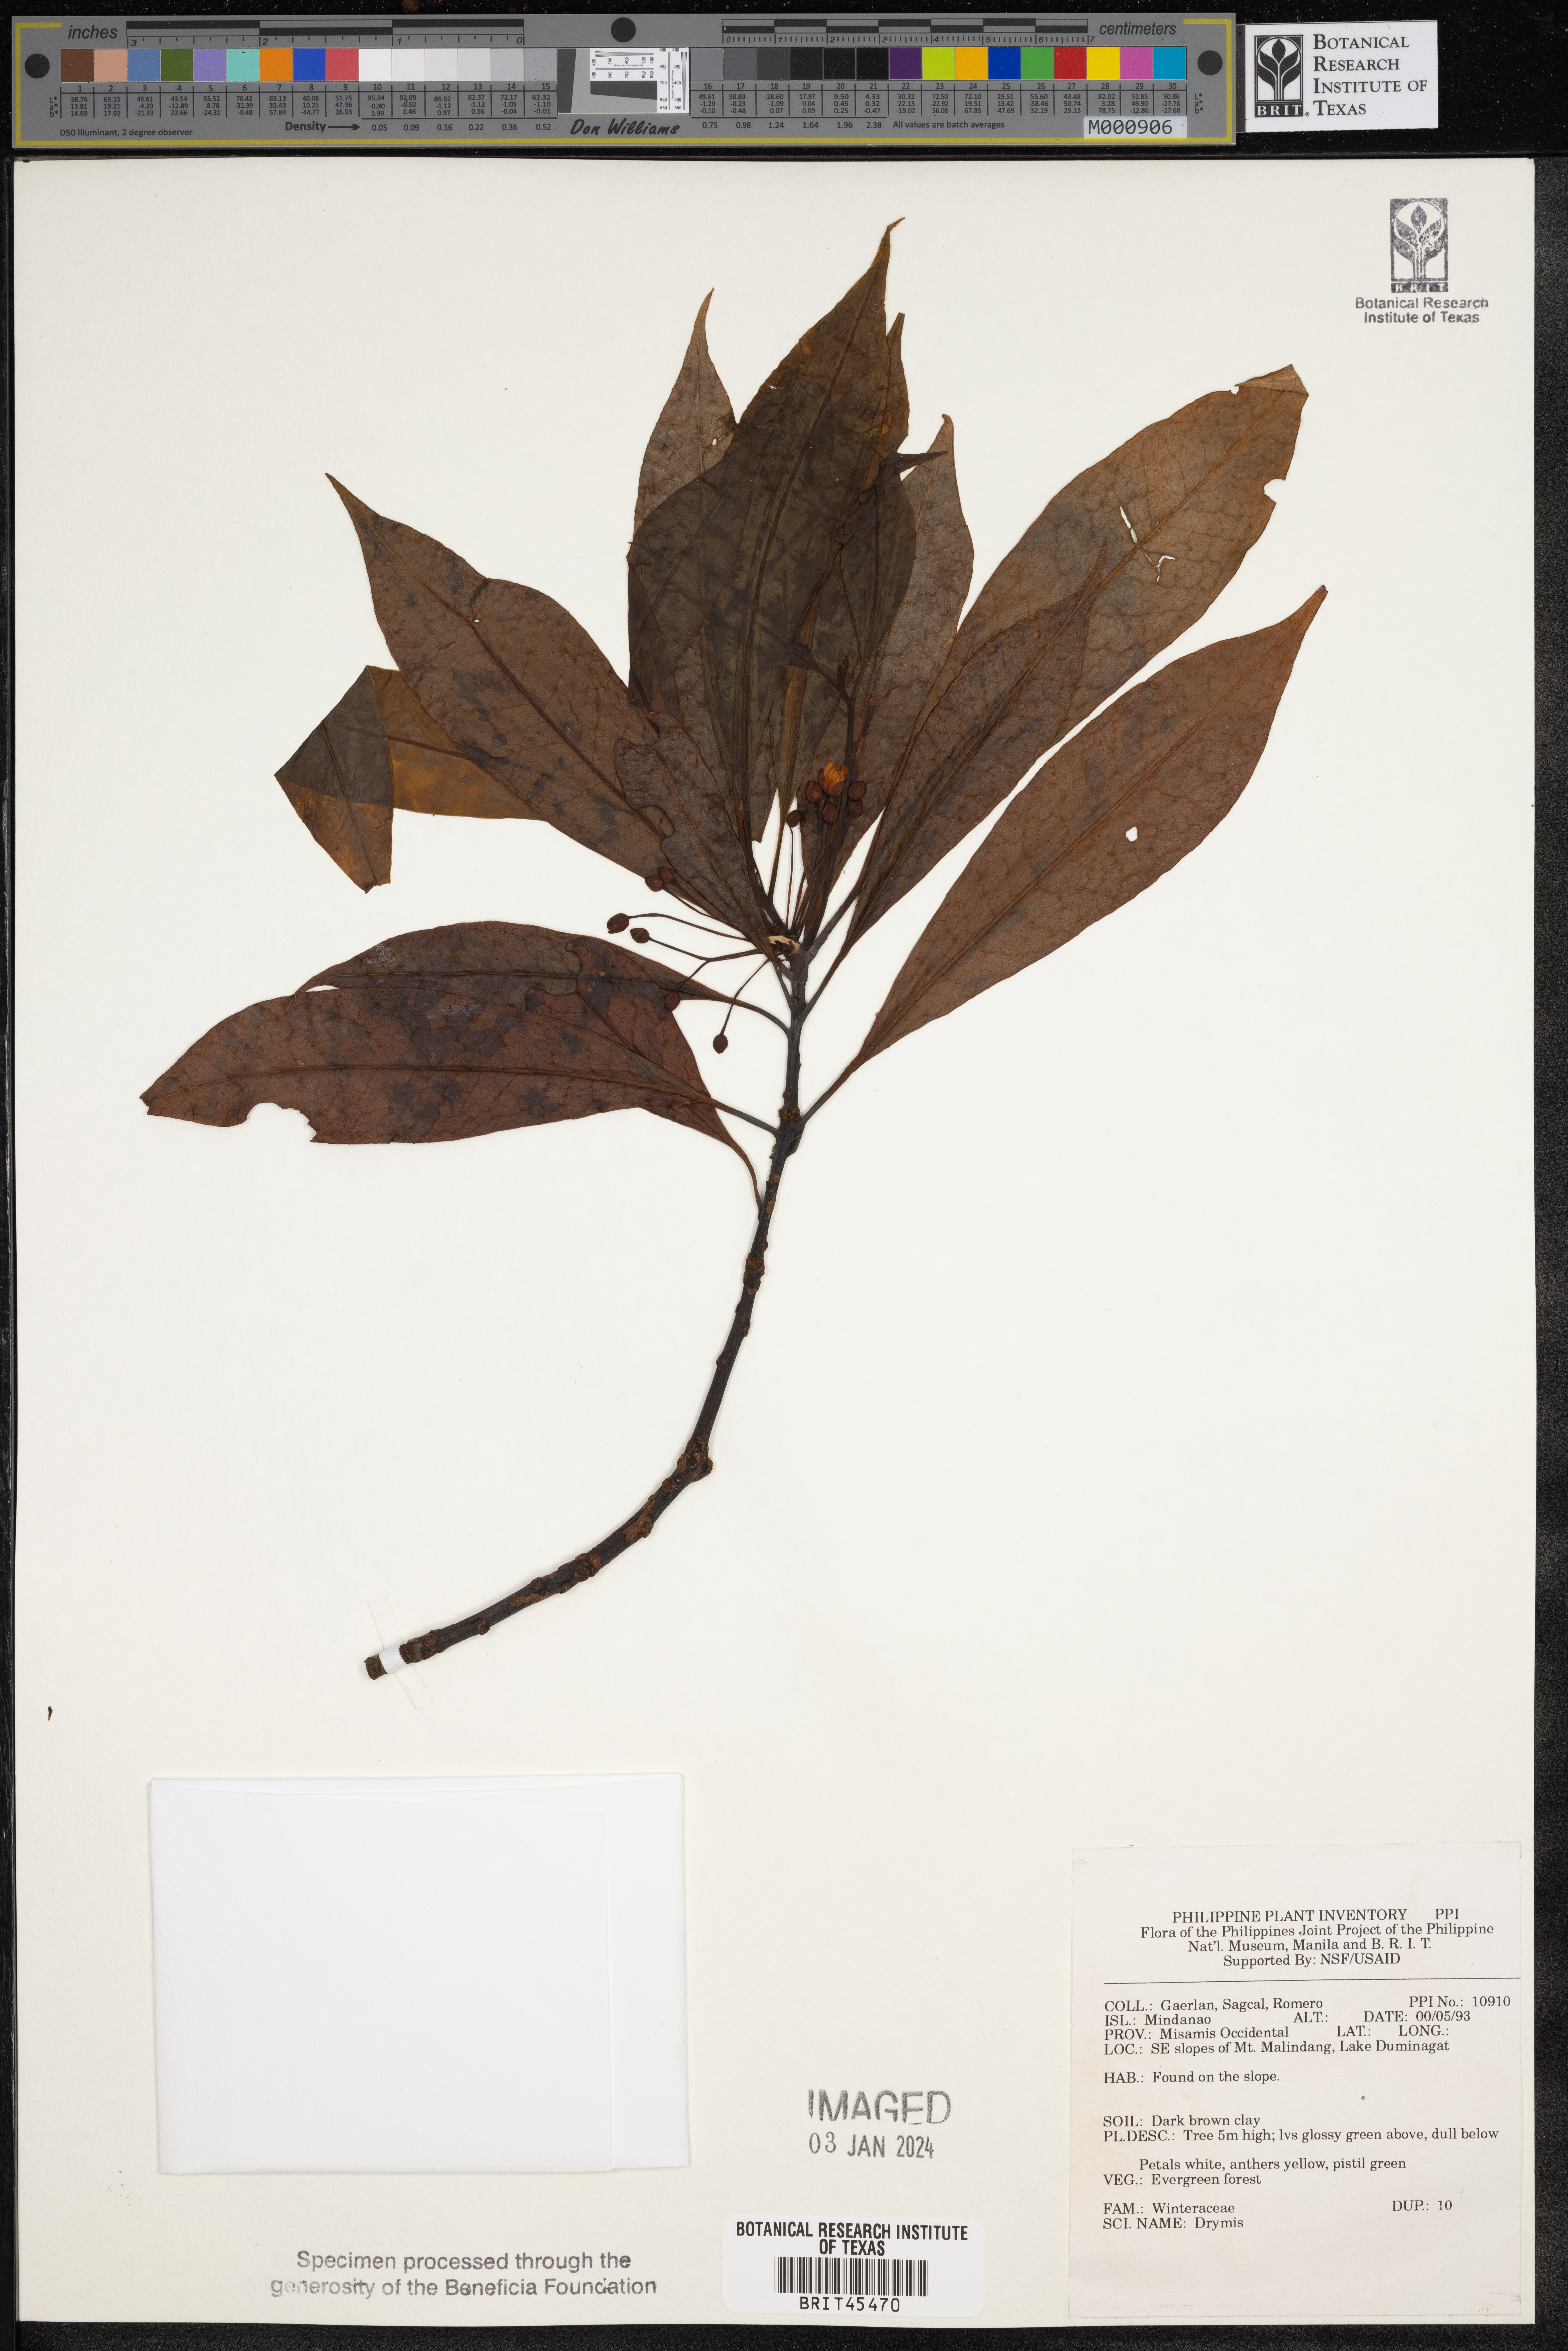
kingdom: Plantae
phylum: Tracheophyta
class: Magnoliopsida
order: Canellales
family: Winteraceae
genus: Drimys
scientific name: Drimys
